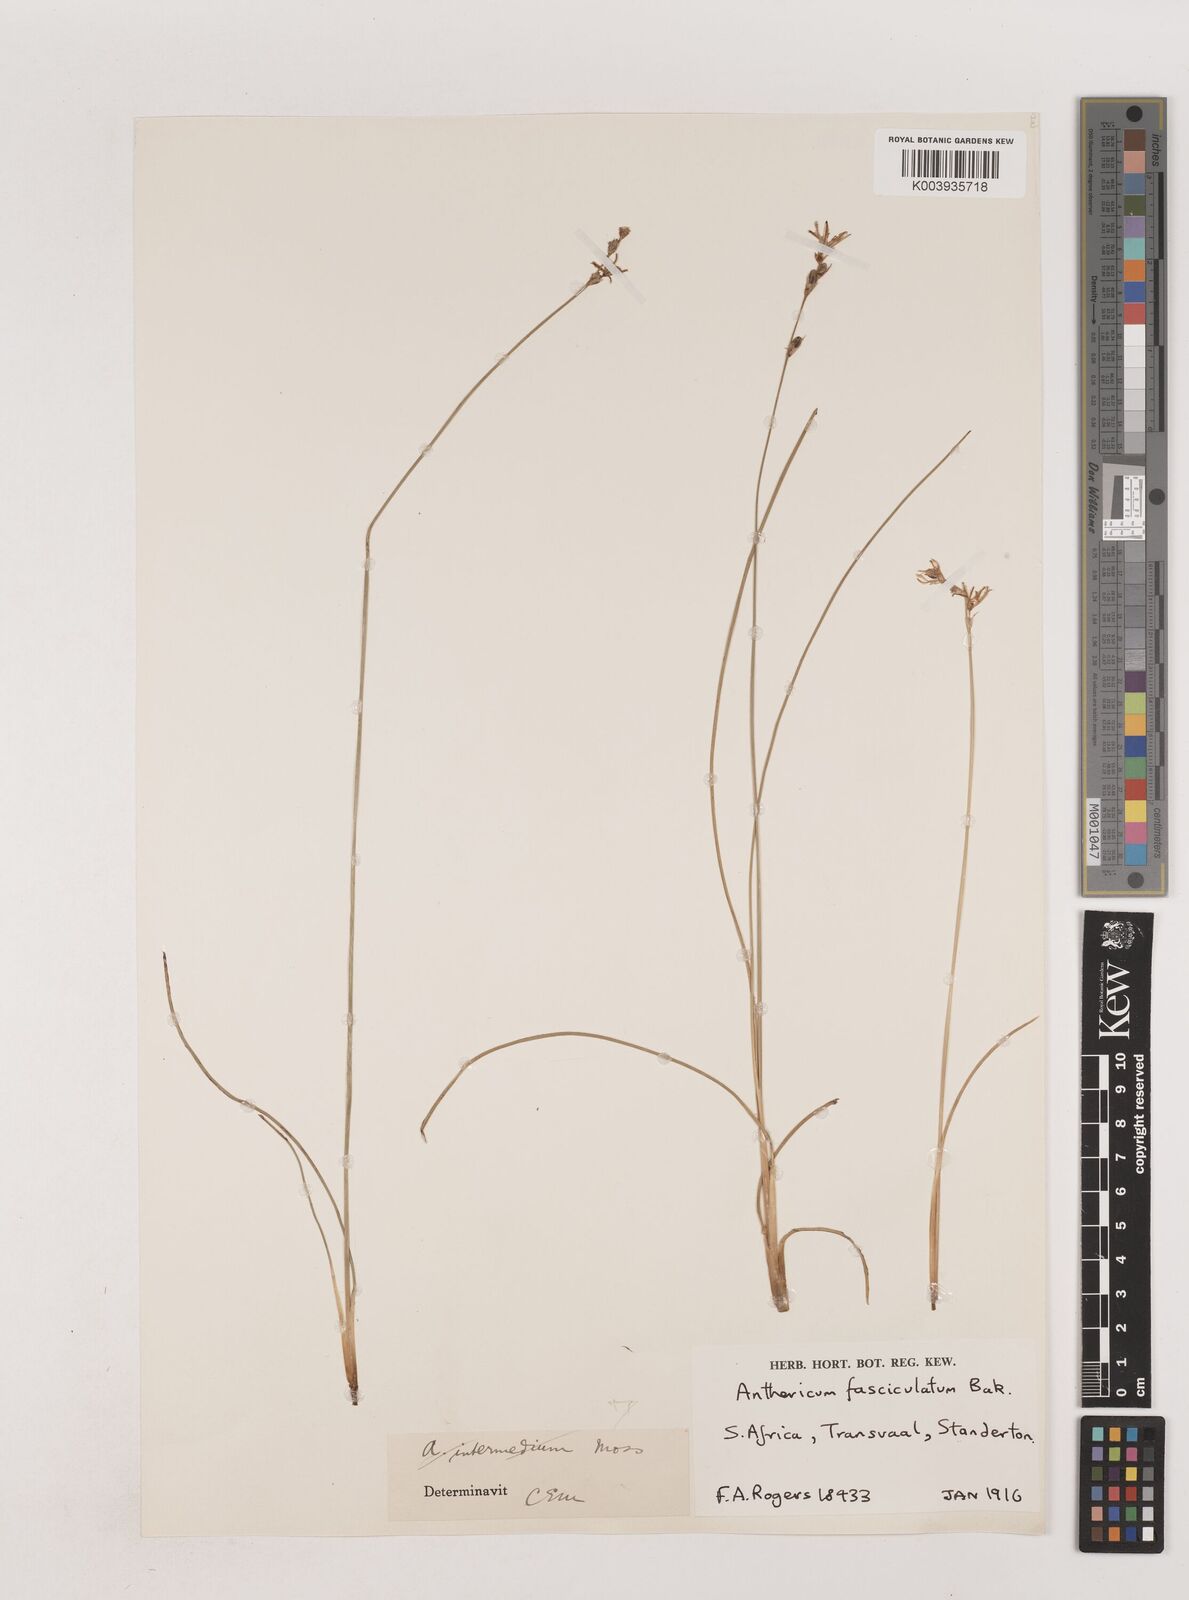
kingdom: Plantae
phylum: Tracheophyta
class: Liliopsida
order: Asparagales
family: Asparagaceae
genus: Chlorophytum
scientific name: Chlorophytum fasciculatum
